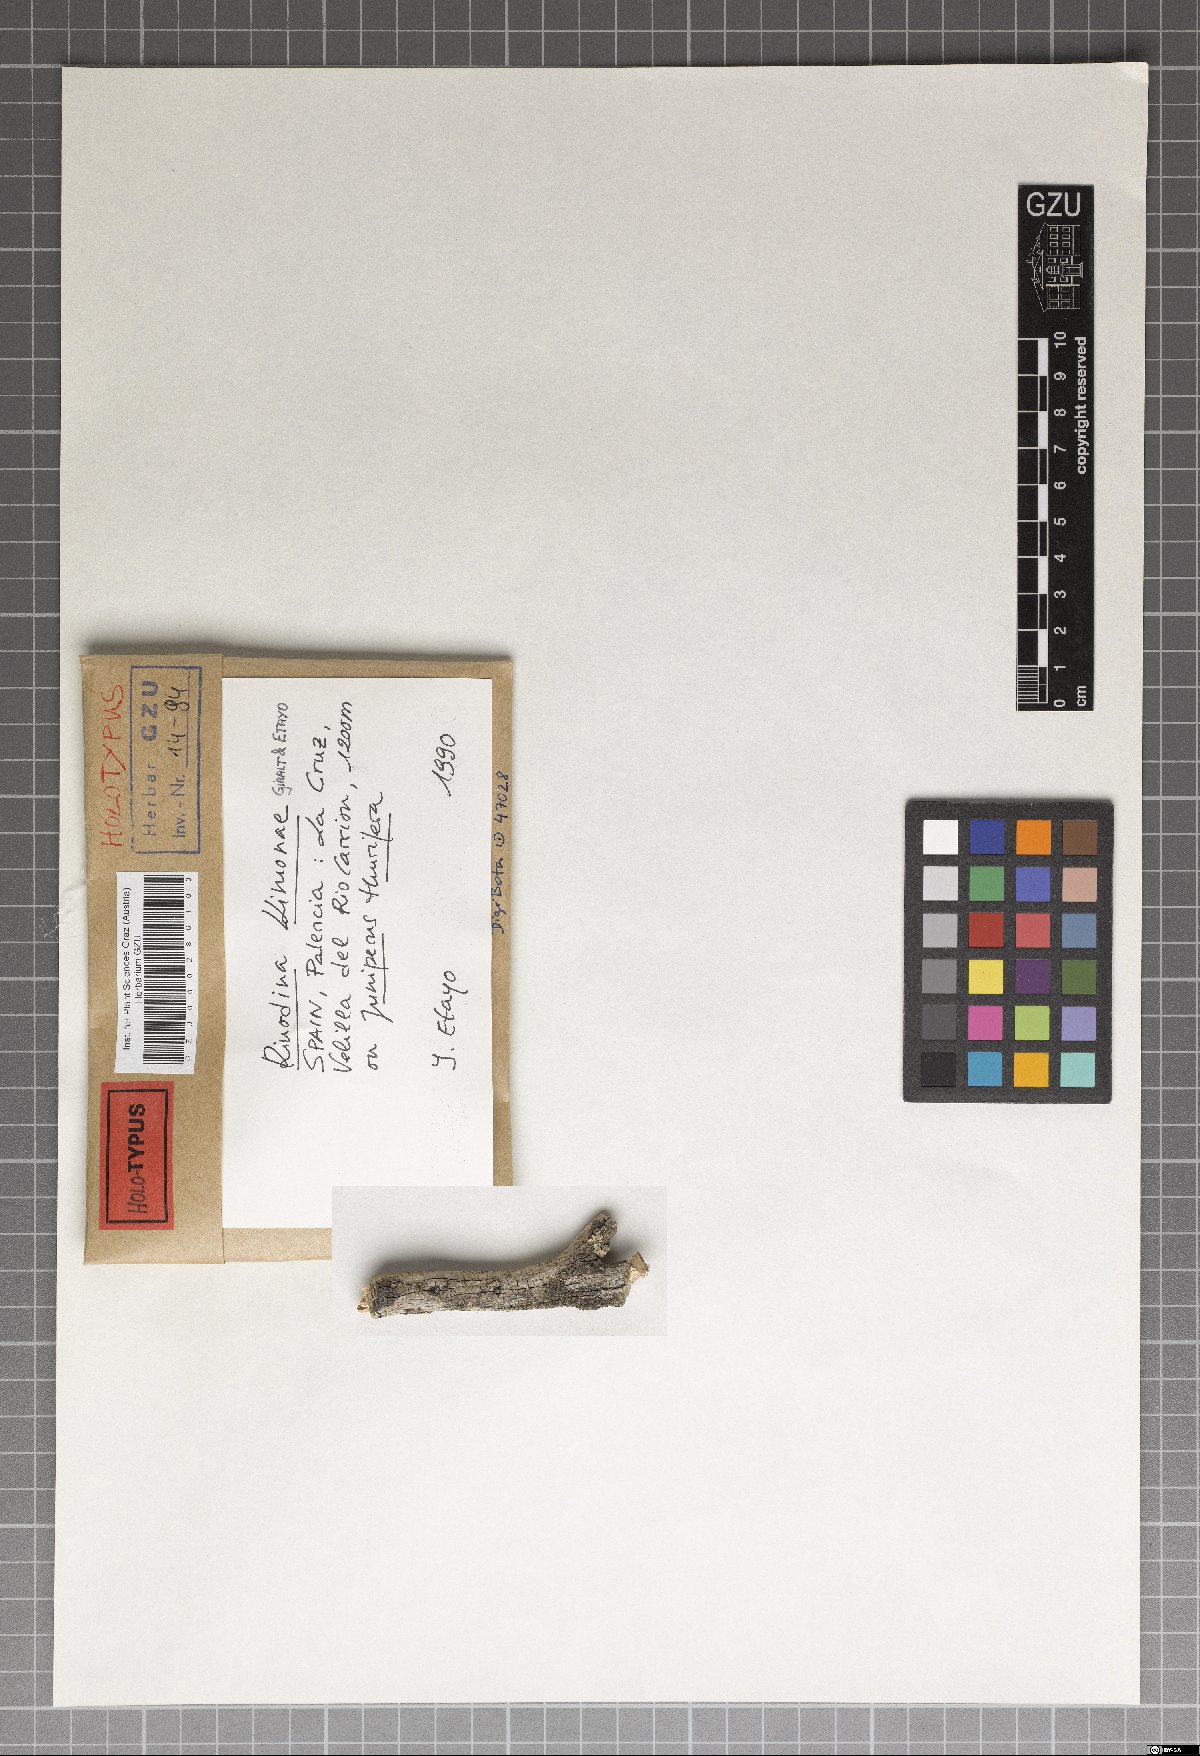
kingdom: Fungi
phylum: Ascomycota
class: Lecanoromycetes
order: Caliciales
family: Physciaceae
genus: Rinodina
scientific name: Rinodina
